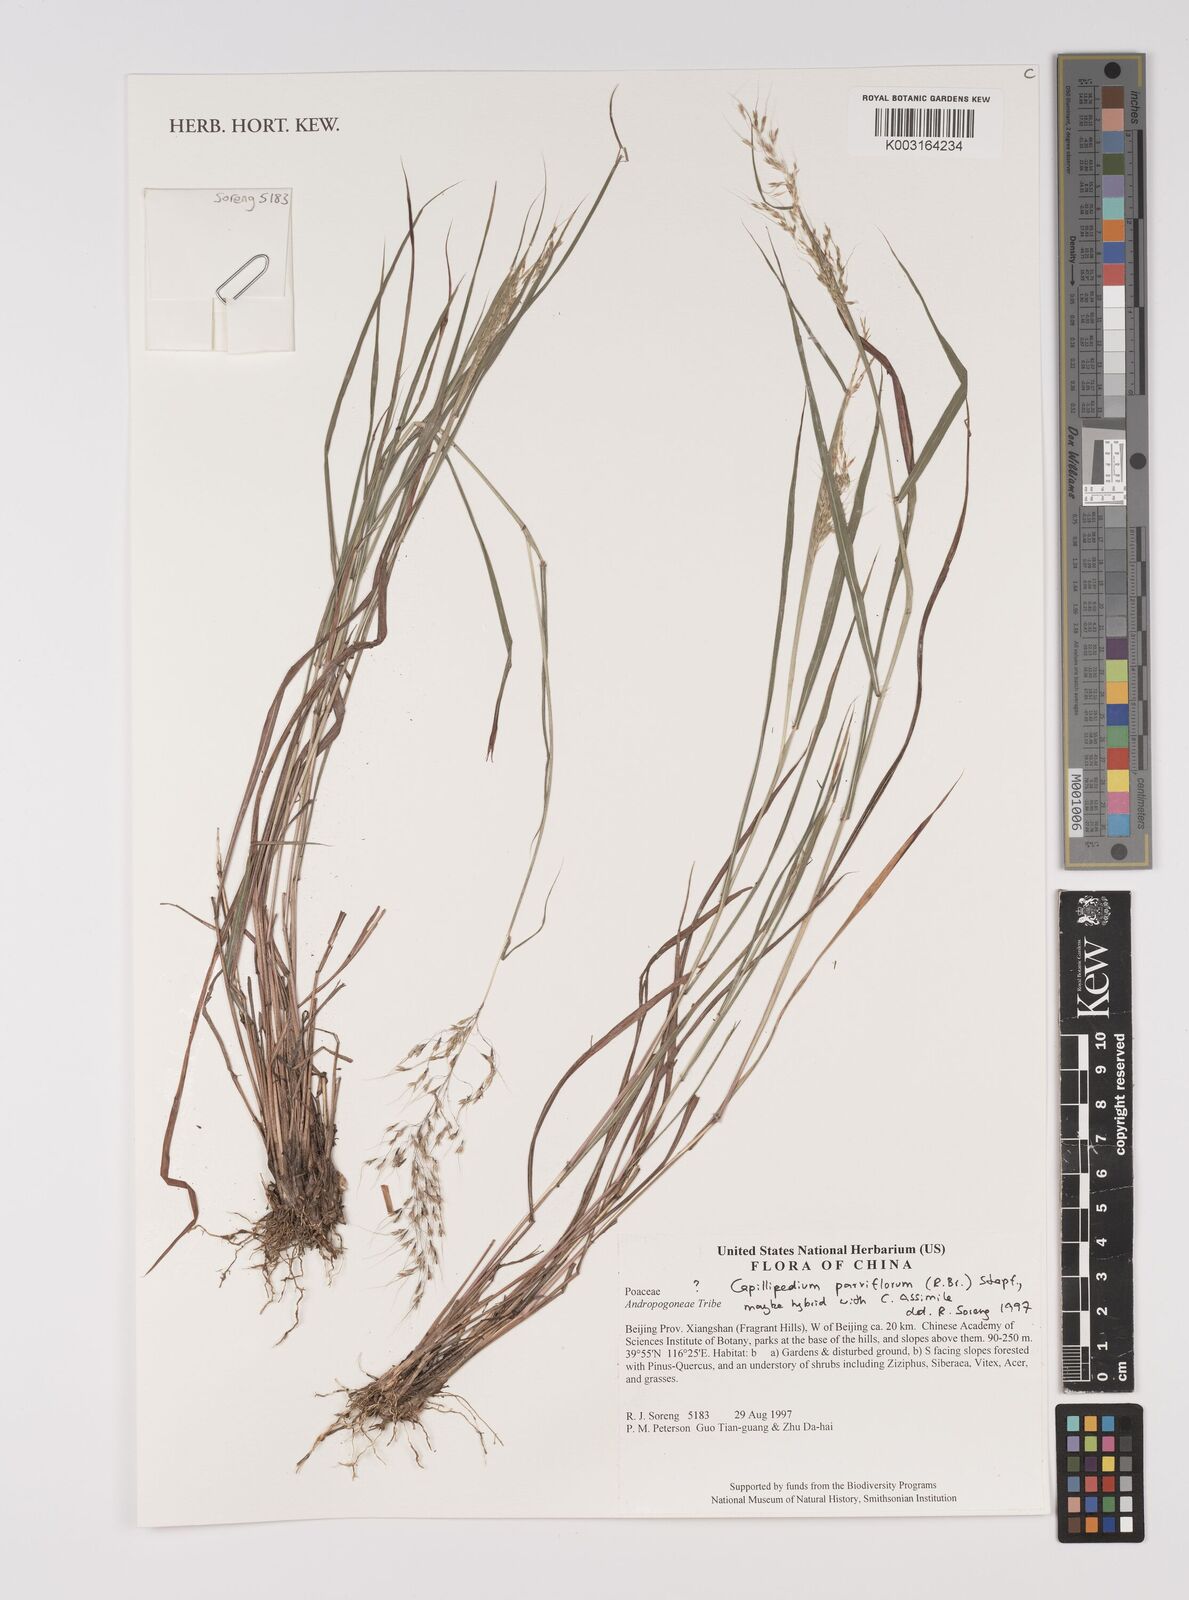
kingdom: Plantae
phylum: Tracheophyta
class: Liliopsida
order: Poales
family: Poaceae
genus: Capillipedium
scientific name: Capillipedium parviflorum
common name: Golden-beard
